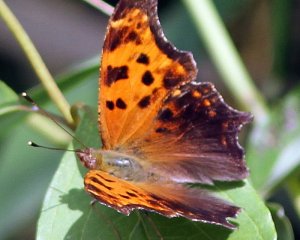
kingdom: Animalia
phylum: Arthropoda
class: Insecta
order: Lepidoptera
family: Nymphalidae
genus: Polygonia
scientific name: Polygonia comma
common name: Eastern Comma
